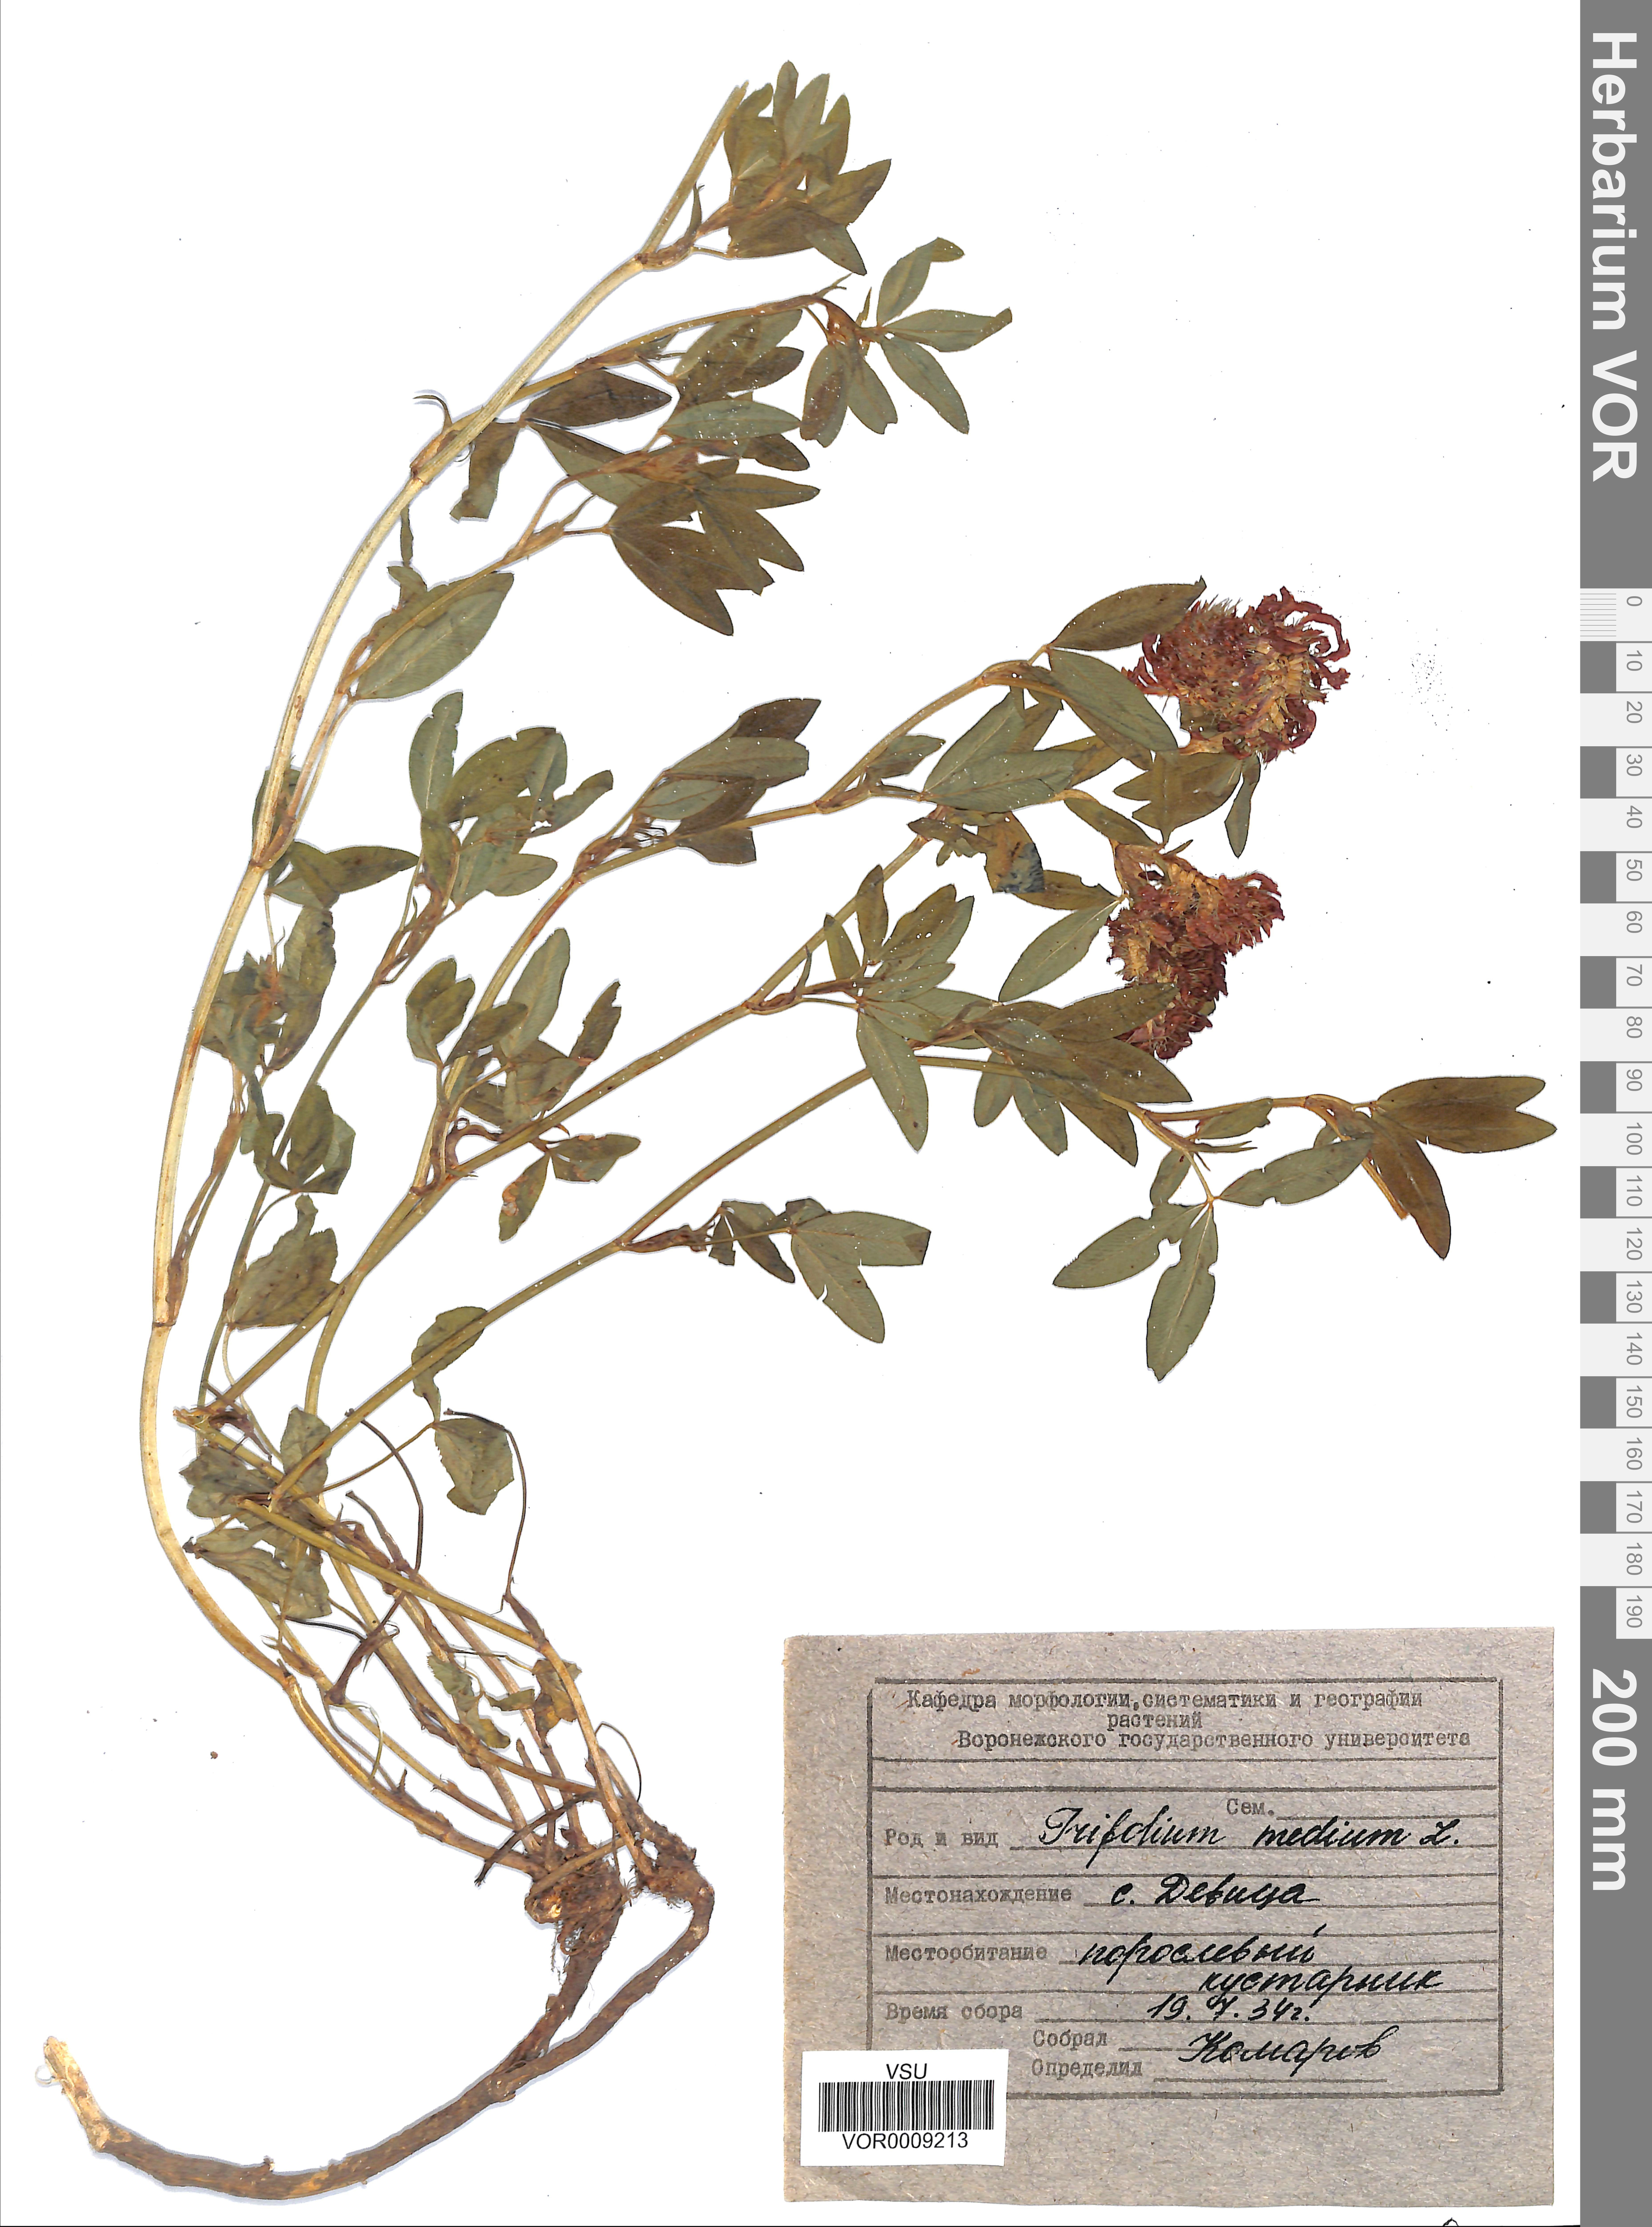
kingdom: Plantae
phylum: Tracheophyta
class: Magnoliopsida
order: Fabales
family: Fabaceae
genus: Trifolium
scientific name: Trifolium medium
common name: Zigzag clover
